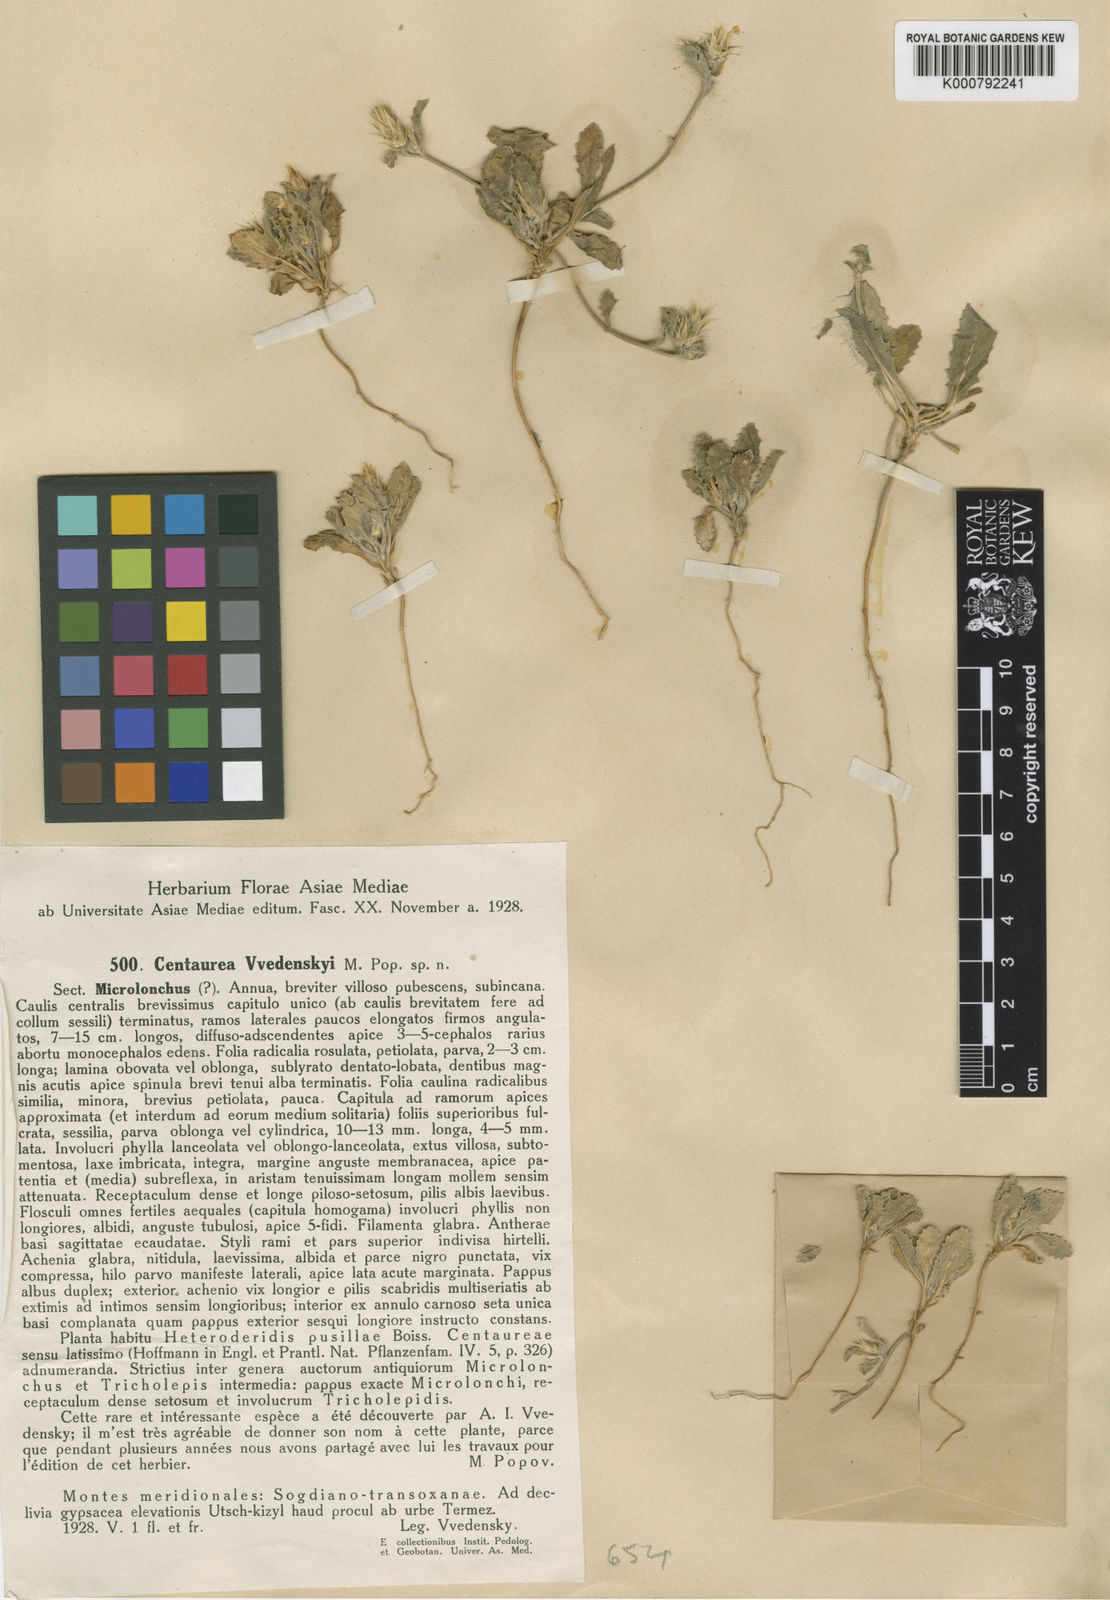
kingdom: Plantae
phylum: Tracheophyta
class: Magnoliopsida
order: Asterales
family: Asteraceae
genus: Oligochaeta
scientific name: Oligochaeta
